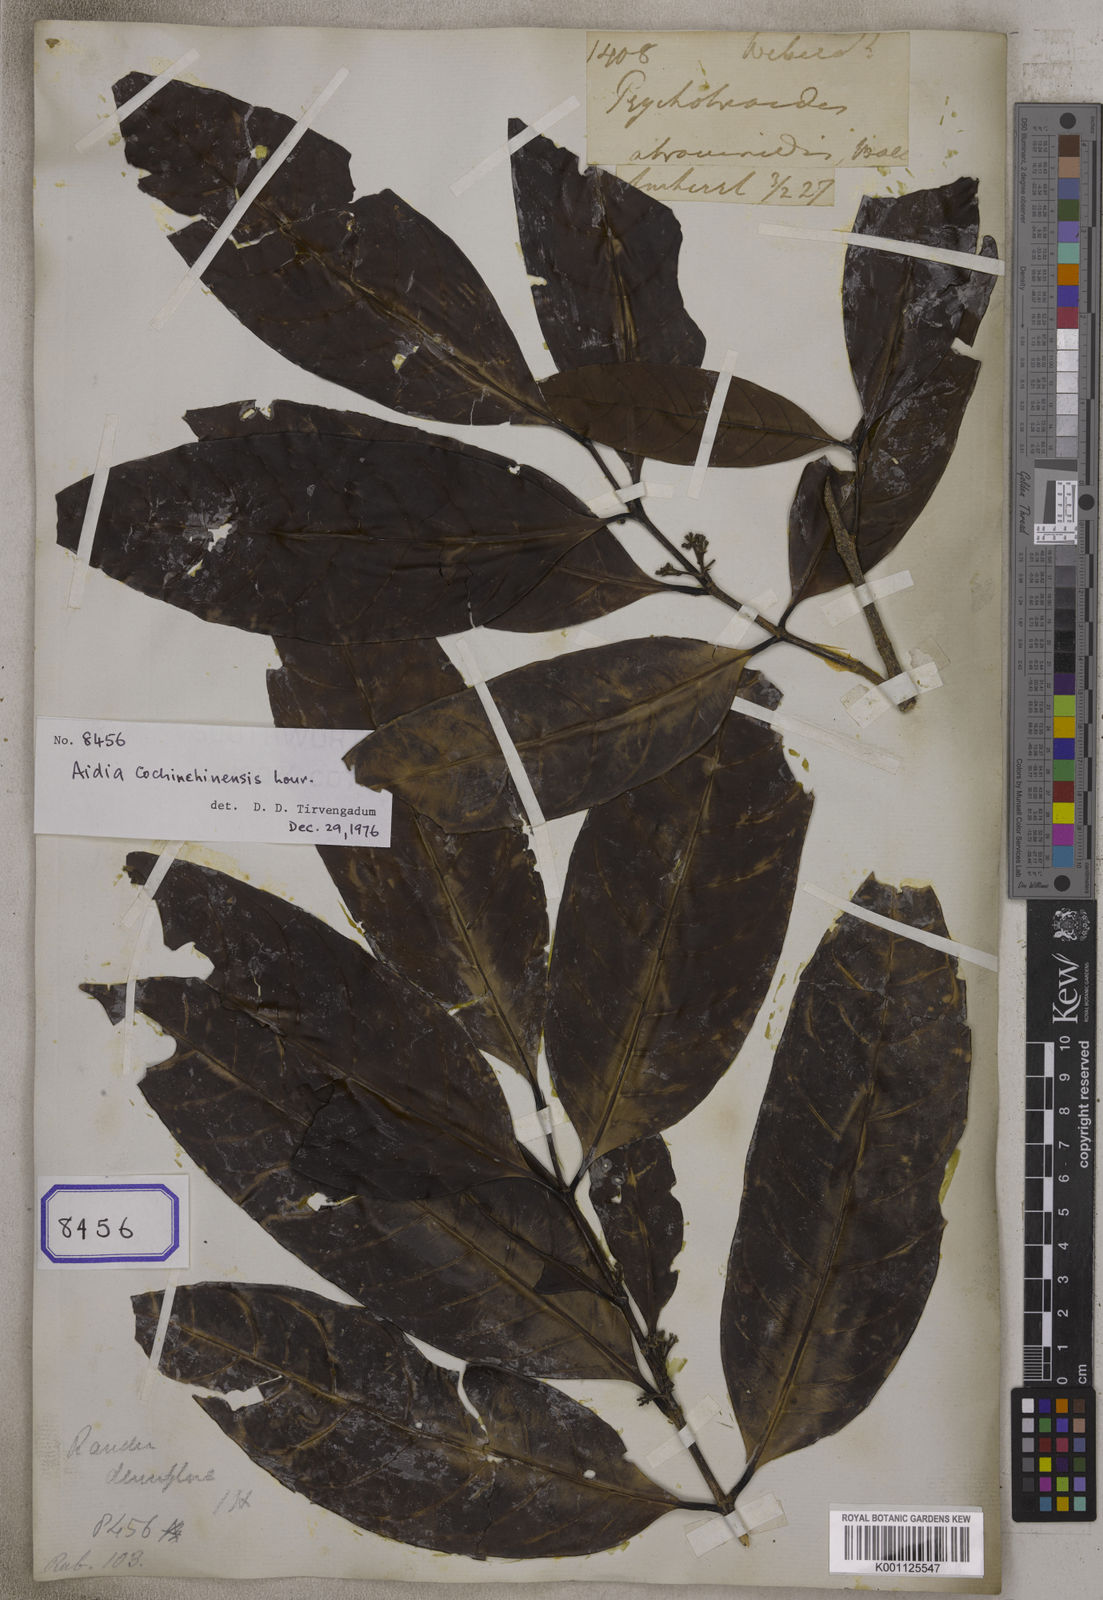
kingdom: Plantae
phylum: Tracheophyta
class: Magnoliopsida
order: Gentianales
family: Rubiaceae
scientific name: Rubiaceae
